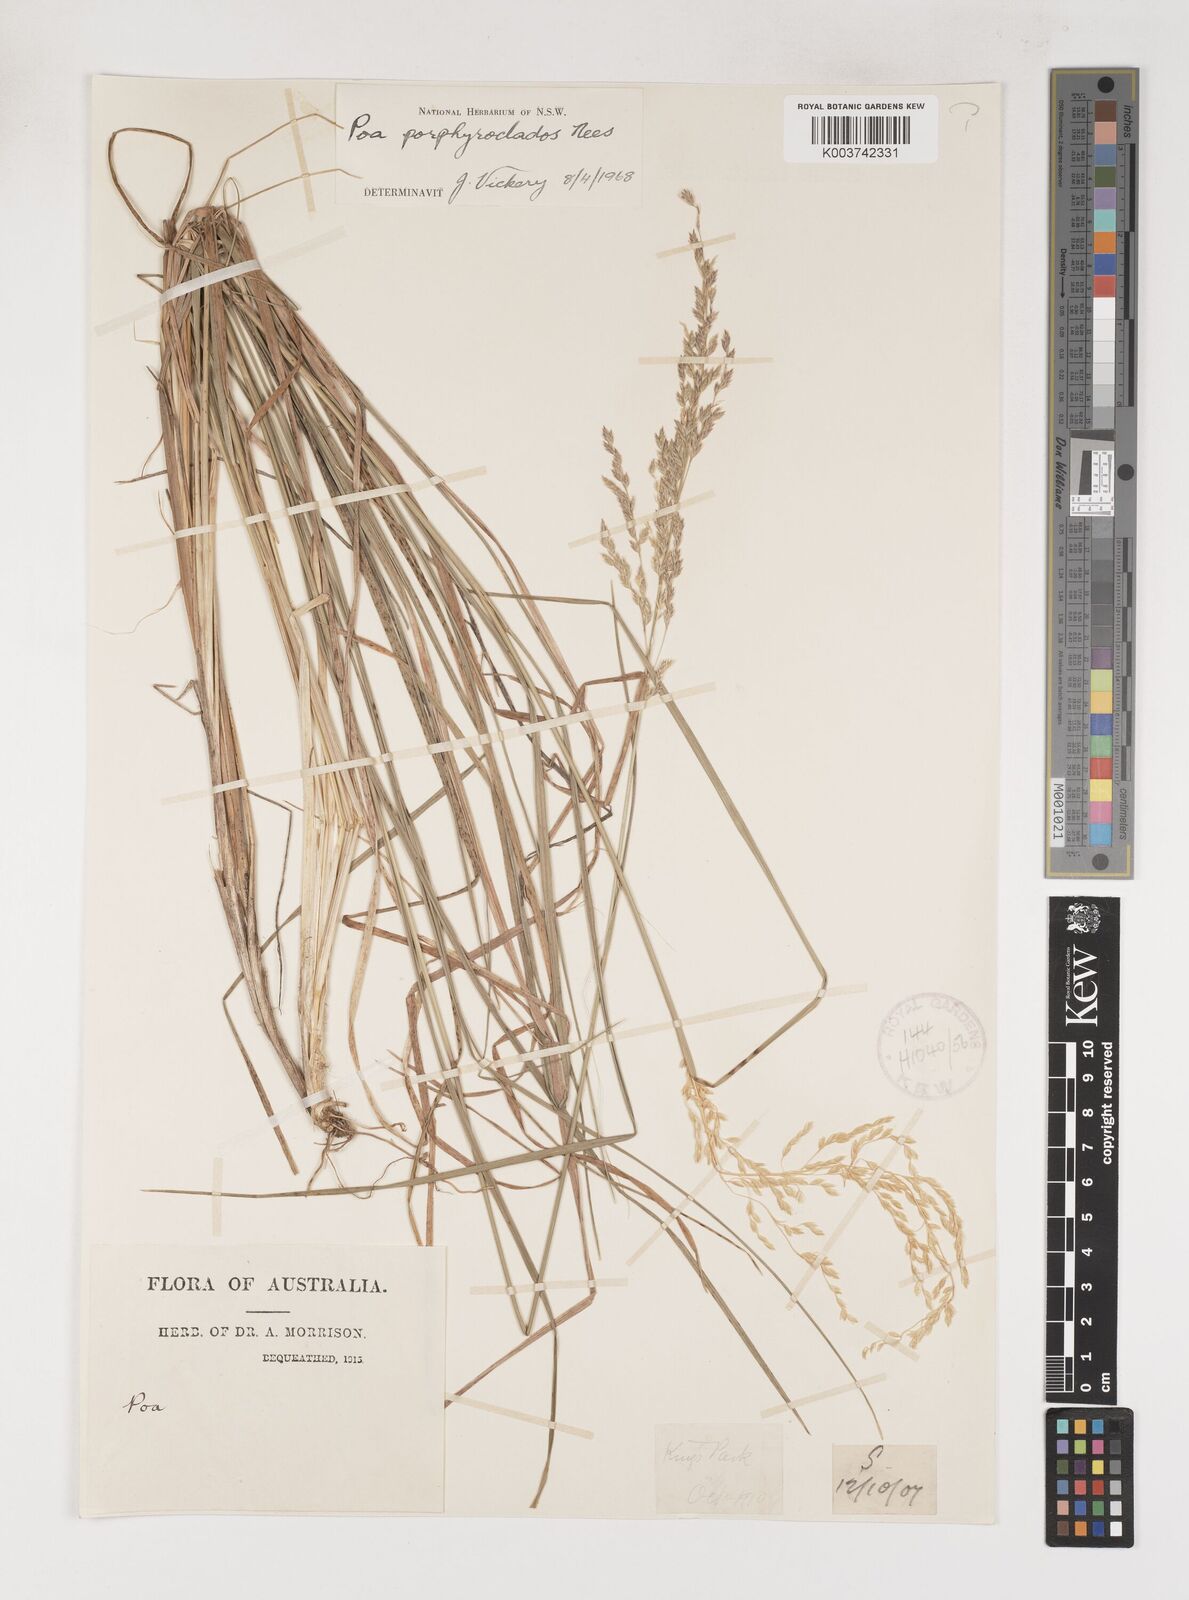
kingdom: Plantae
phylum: Tracheophyta
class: Liliopsida
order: Poales
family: Poaceae
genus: Poa
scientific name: Poa porphyroclados
